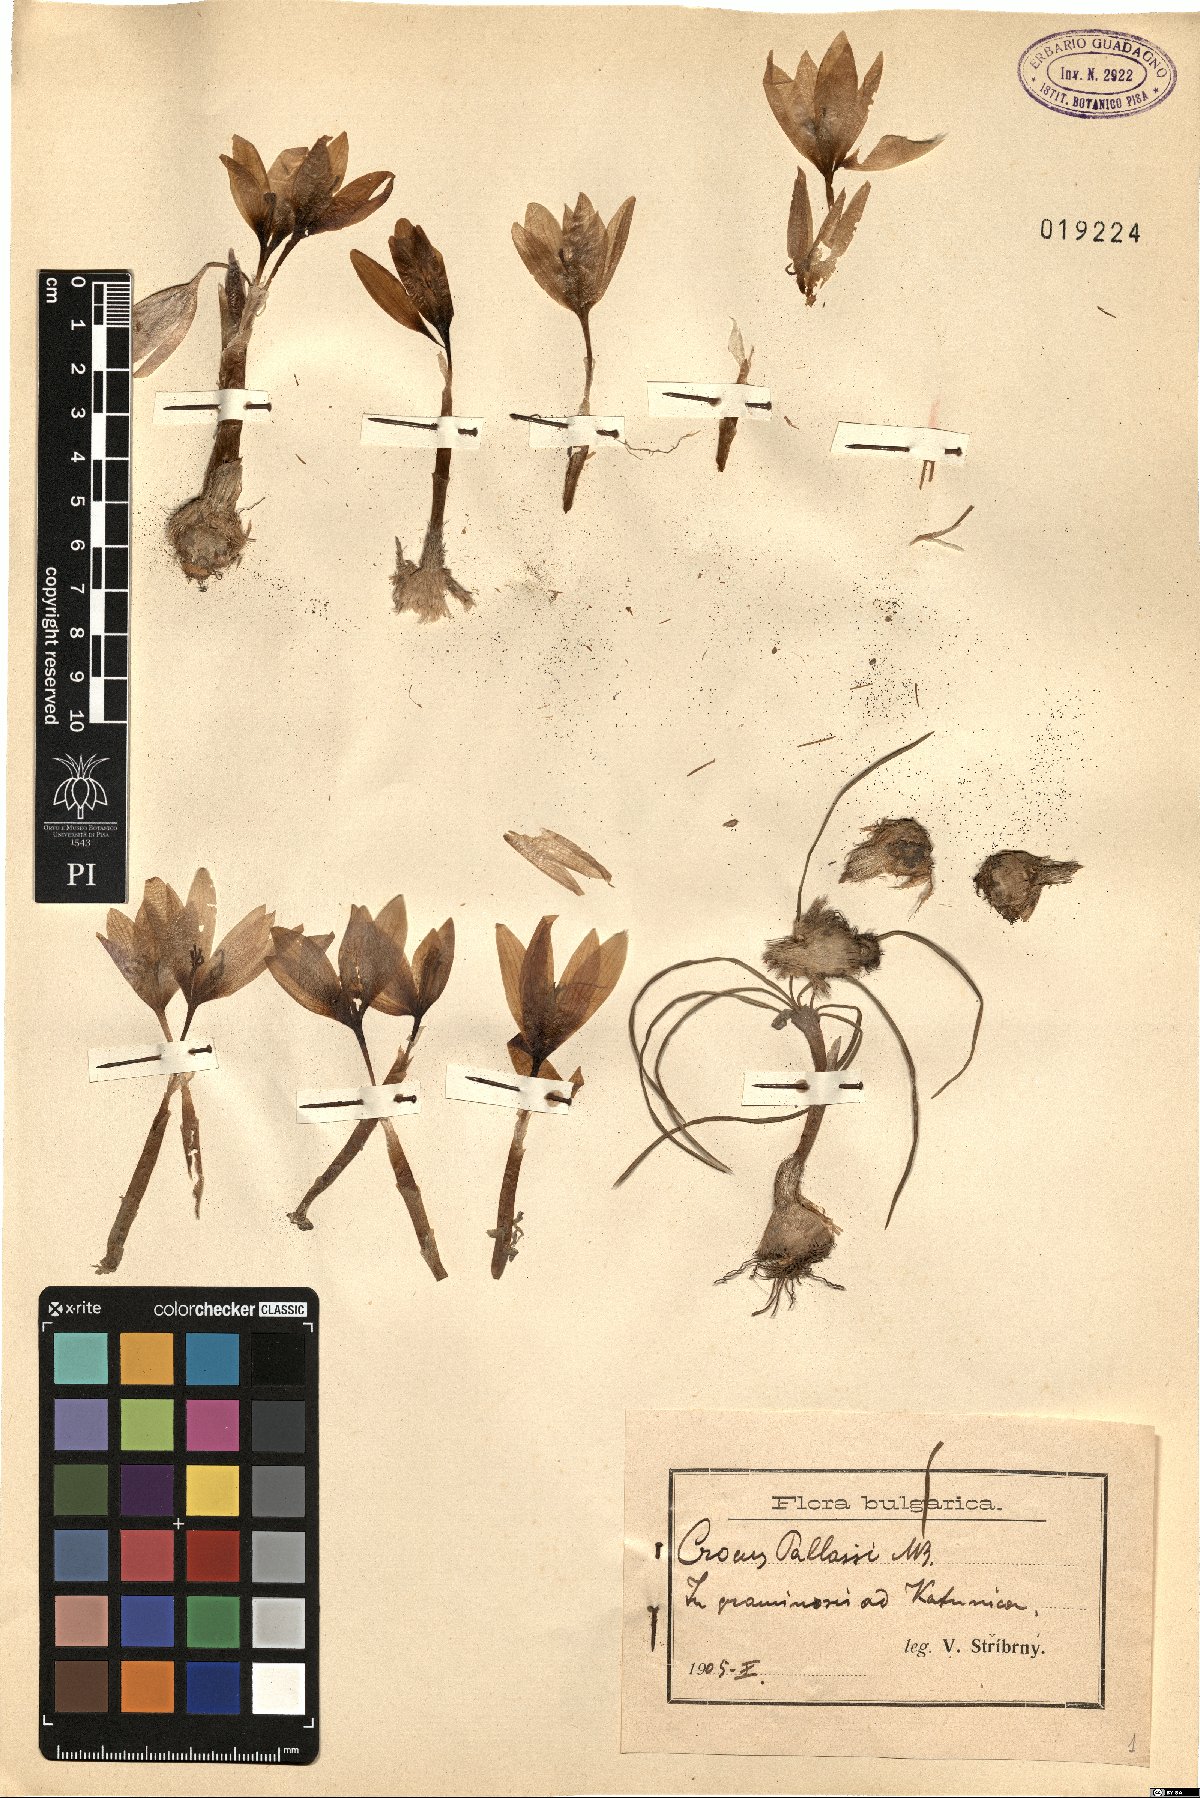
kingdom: Plantae
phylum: Tracheophyta
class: Liliopsida
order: Asparagales
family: Iridaceae
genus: Crocus
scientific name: Crocus pallasii
